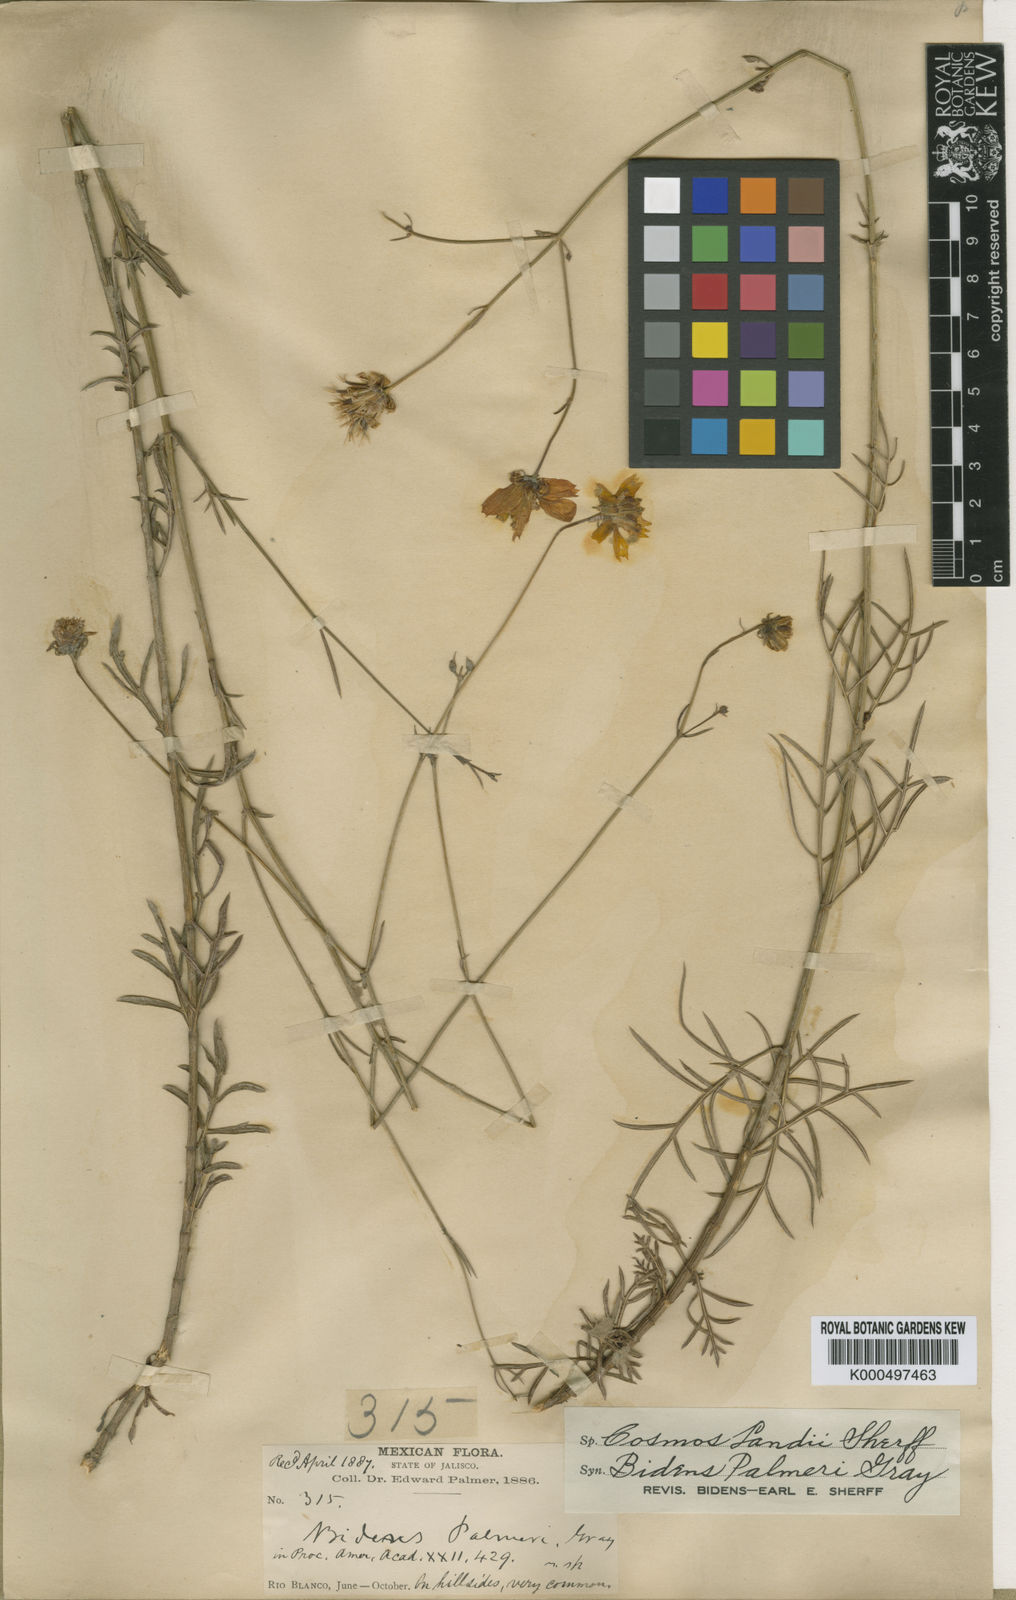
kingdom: Plantae
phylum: Tracheophyta
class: Magnoliopsida
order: Asterales
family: Asteraceae
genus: Cosmos
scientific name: Cosmos landii
